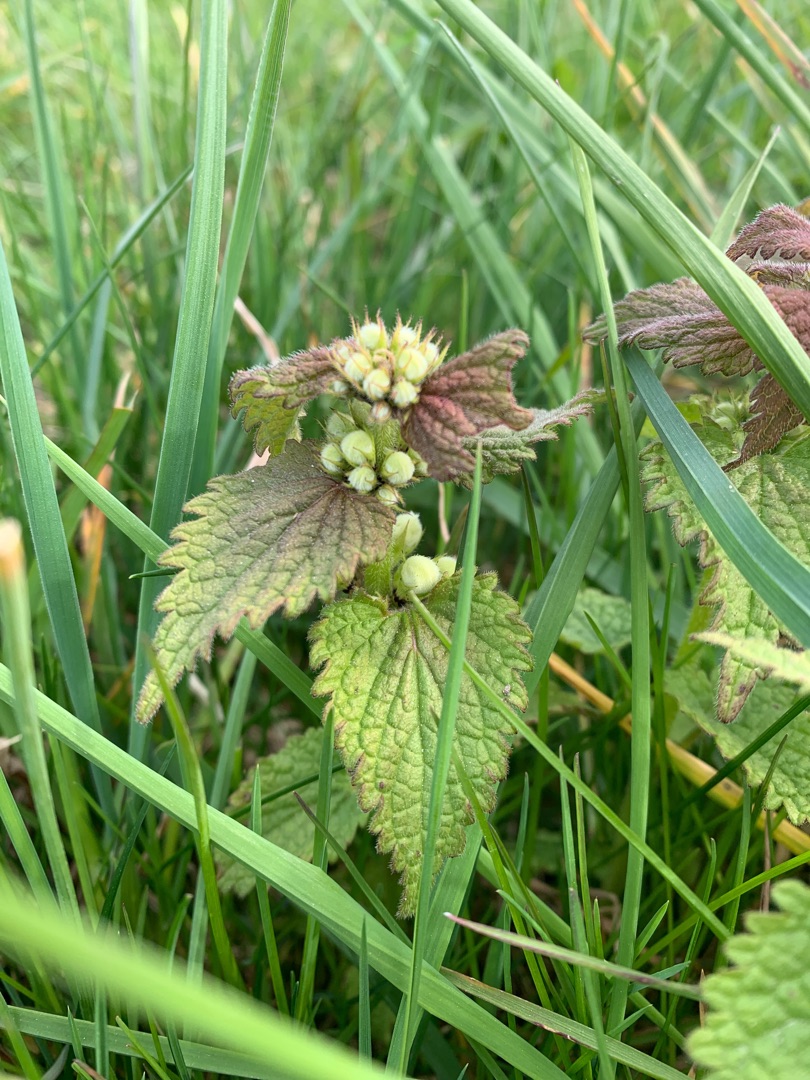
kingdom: Plantae
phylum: Tracheophyta
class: Magnoliopsida
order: Lamiales
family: Lamiaceae
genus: Lamium
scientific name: Lamium album
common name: Døvnælde
